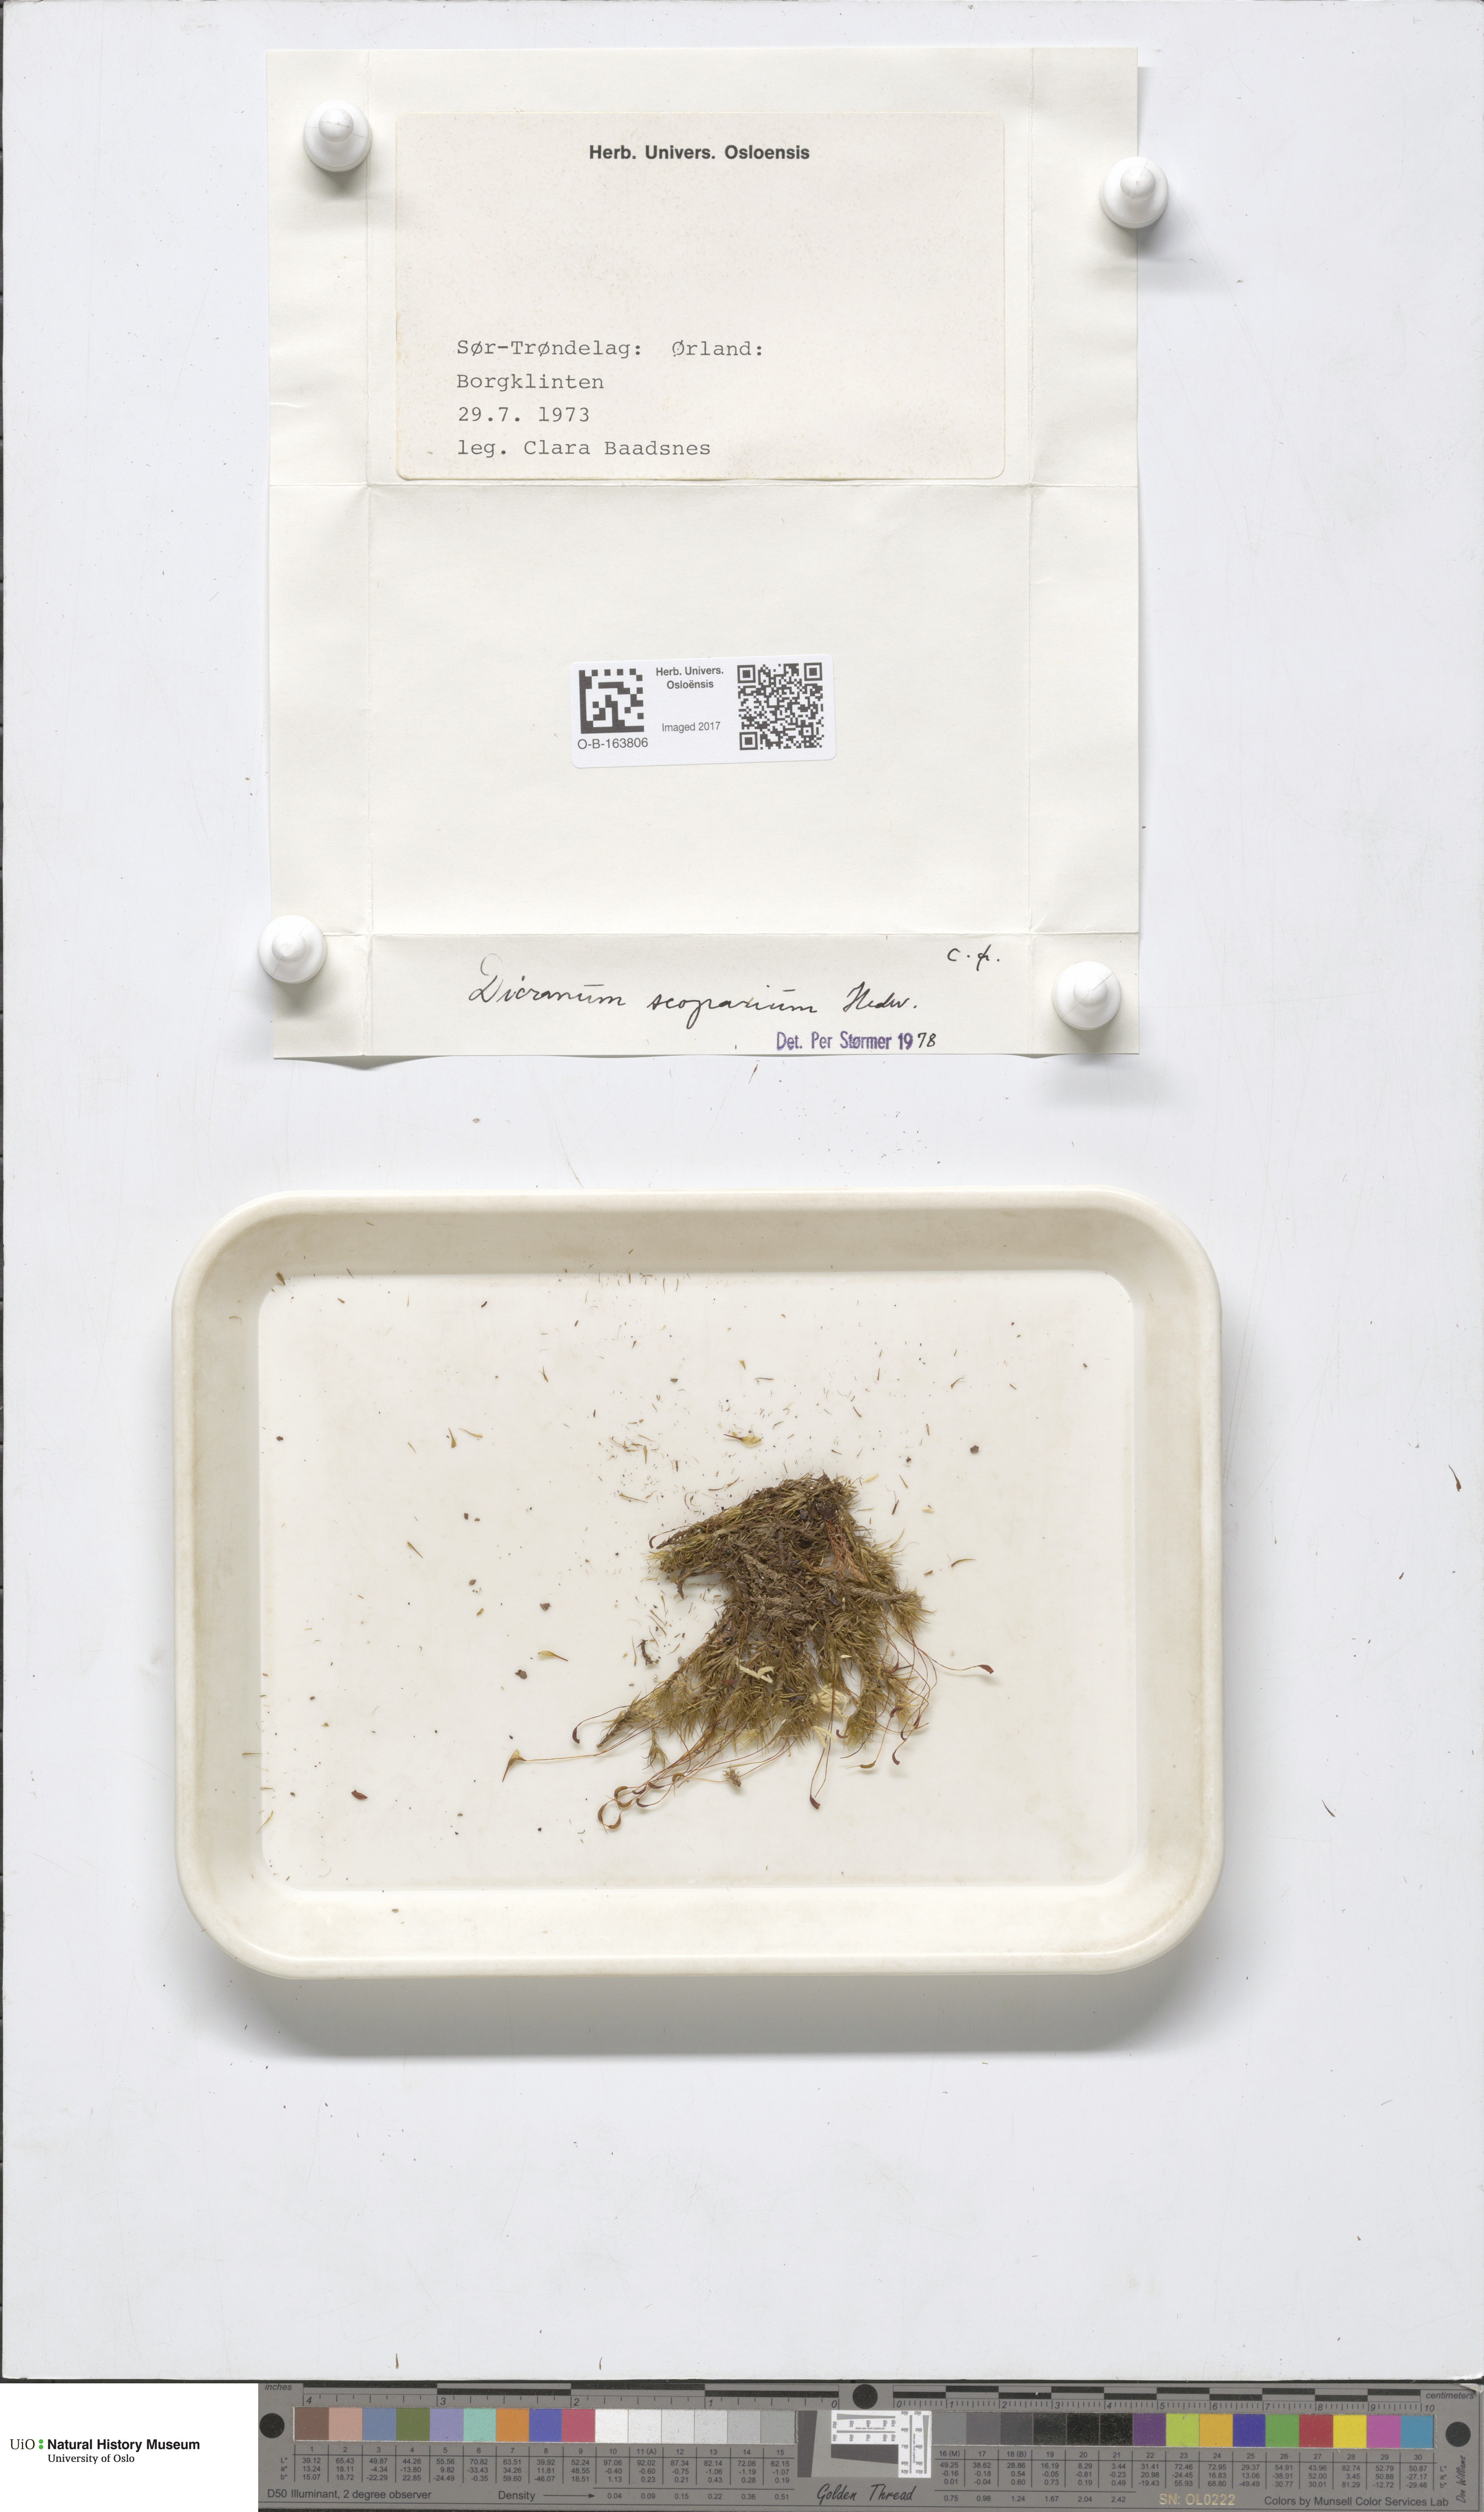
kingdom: Plantae
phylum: Bryophyta
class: Bryopsida
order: Dicranales
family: Dicranaceae
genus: Dicranum
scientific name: Dicranum scoparium
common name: Broom fork-moss
